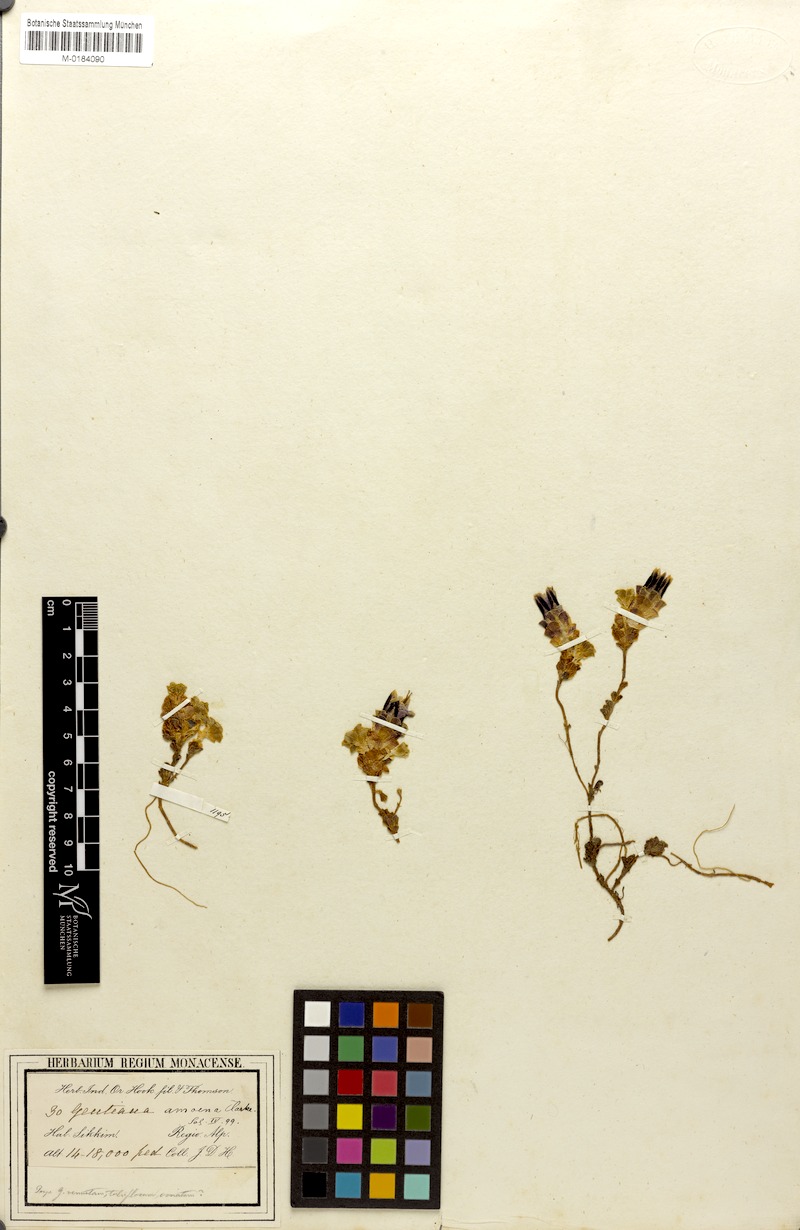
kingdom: Plantae
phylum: Tracheophyta
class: Magnoliopsida
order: Gentianales
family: Gentianaceae
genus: Gentiana
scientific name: Gentiana emodi
